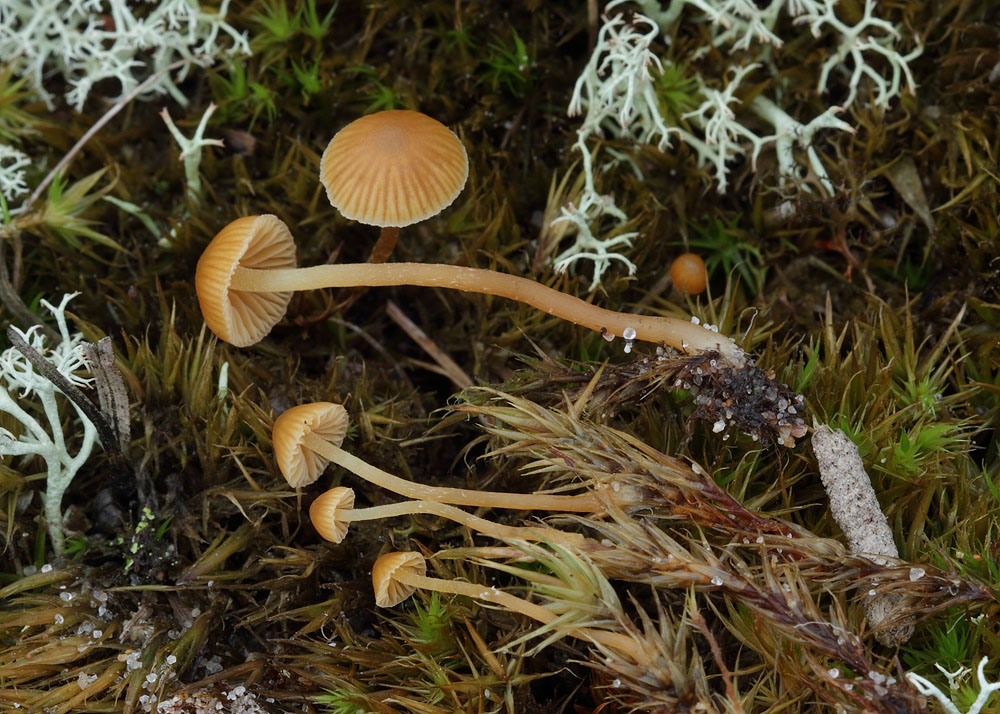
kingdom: Fungi
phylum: Basidiomycota
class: Agaricomycetes
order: Agaricales
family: Hymenogastraceae
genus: Galerina
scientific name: Galerina calyptrata
